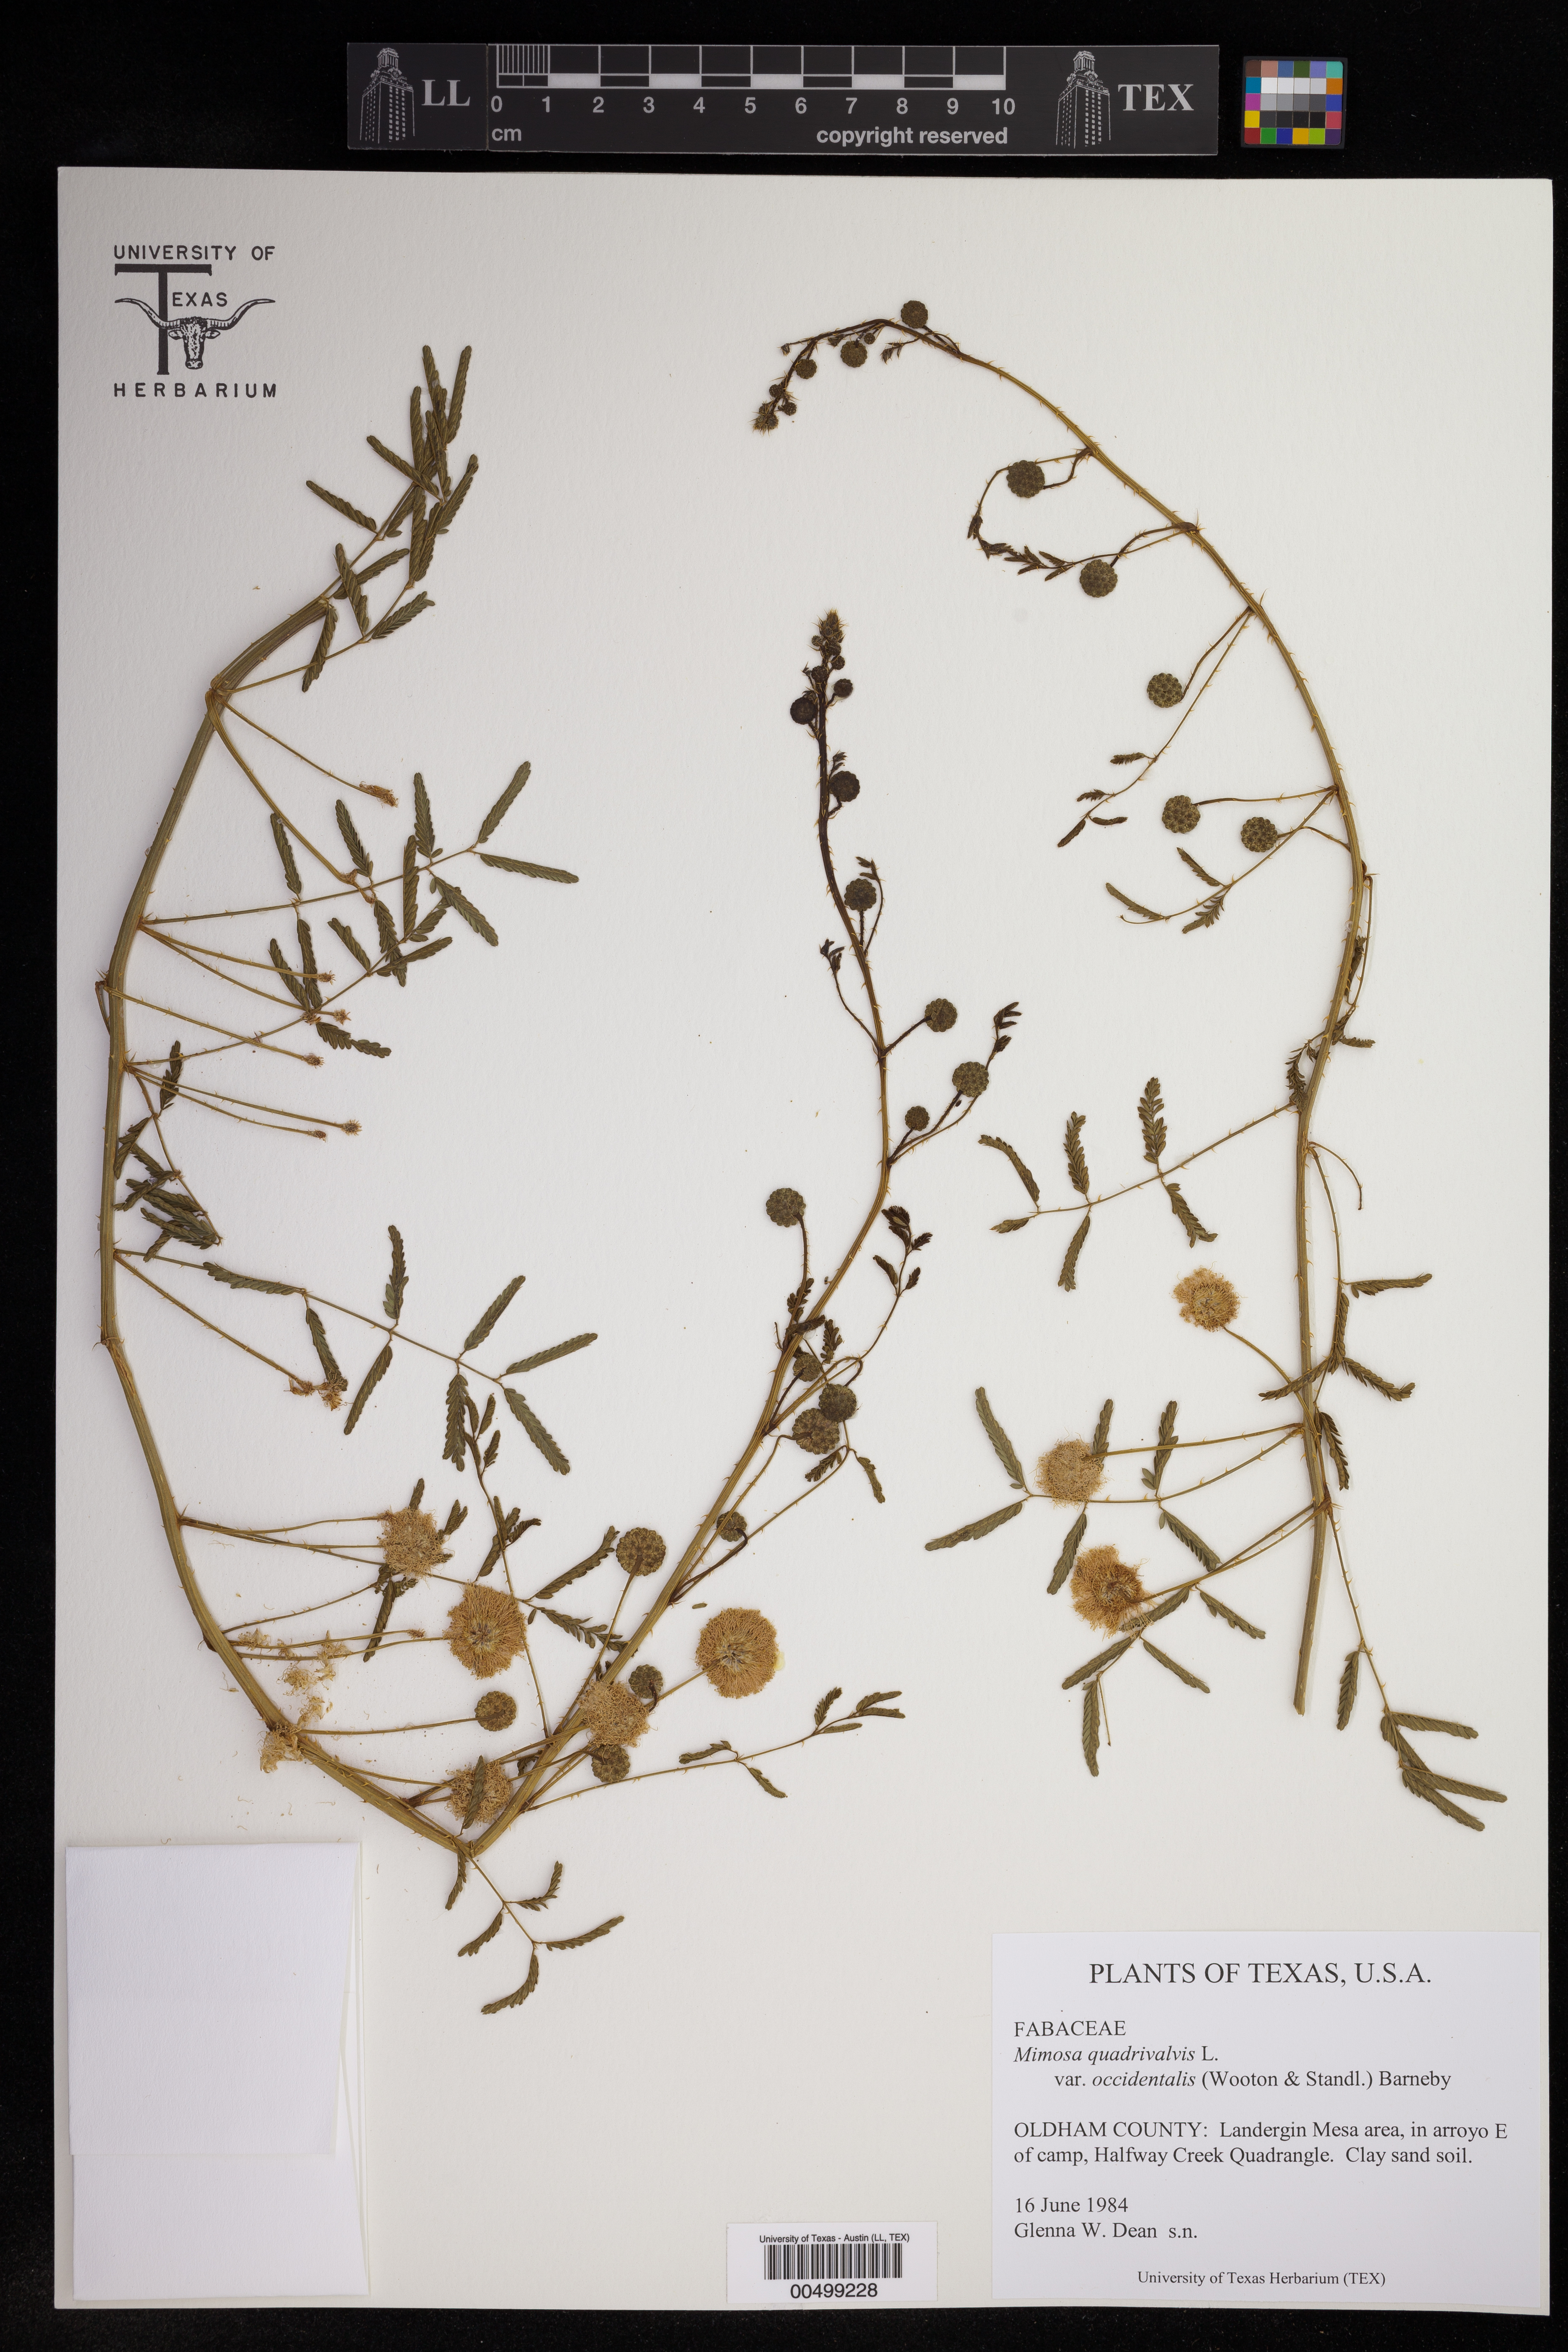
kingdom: Plantae
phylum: Tracheophyta
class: Magnoliopsida
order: Fabales
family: Fabaceae
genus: Mimosa
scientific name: Mimosa quadrivalvis
